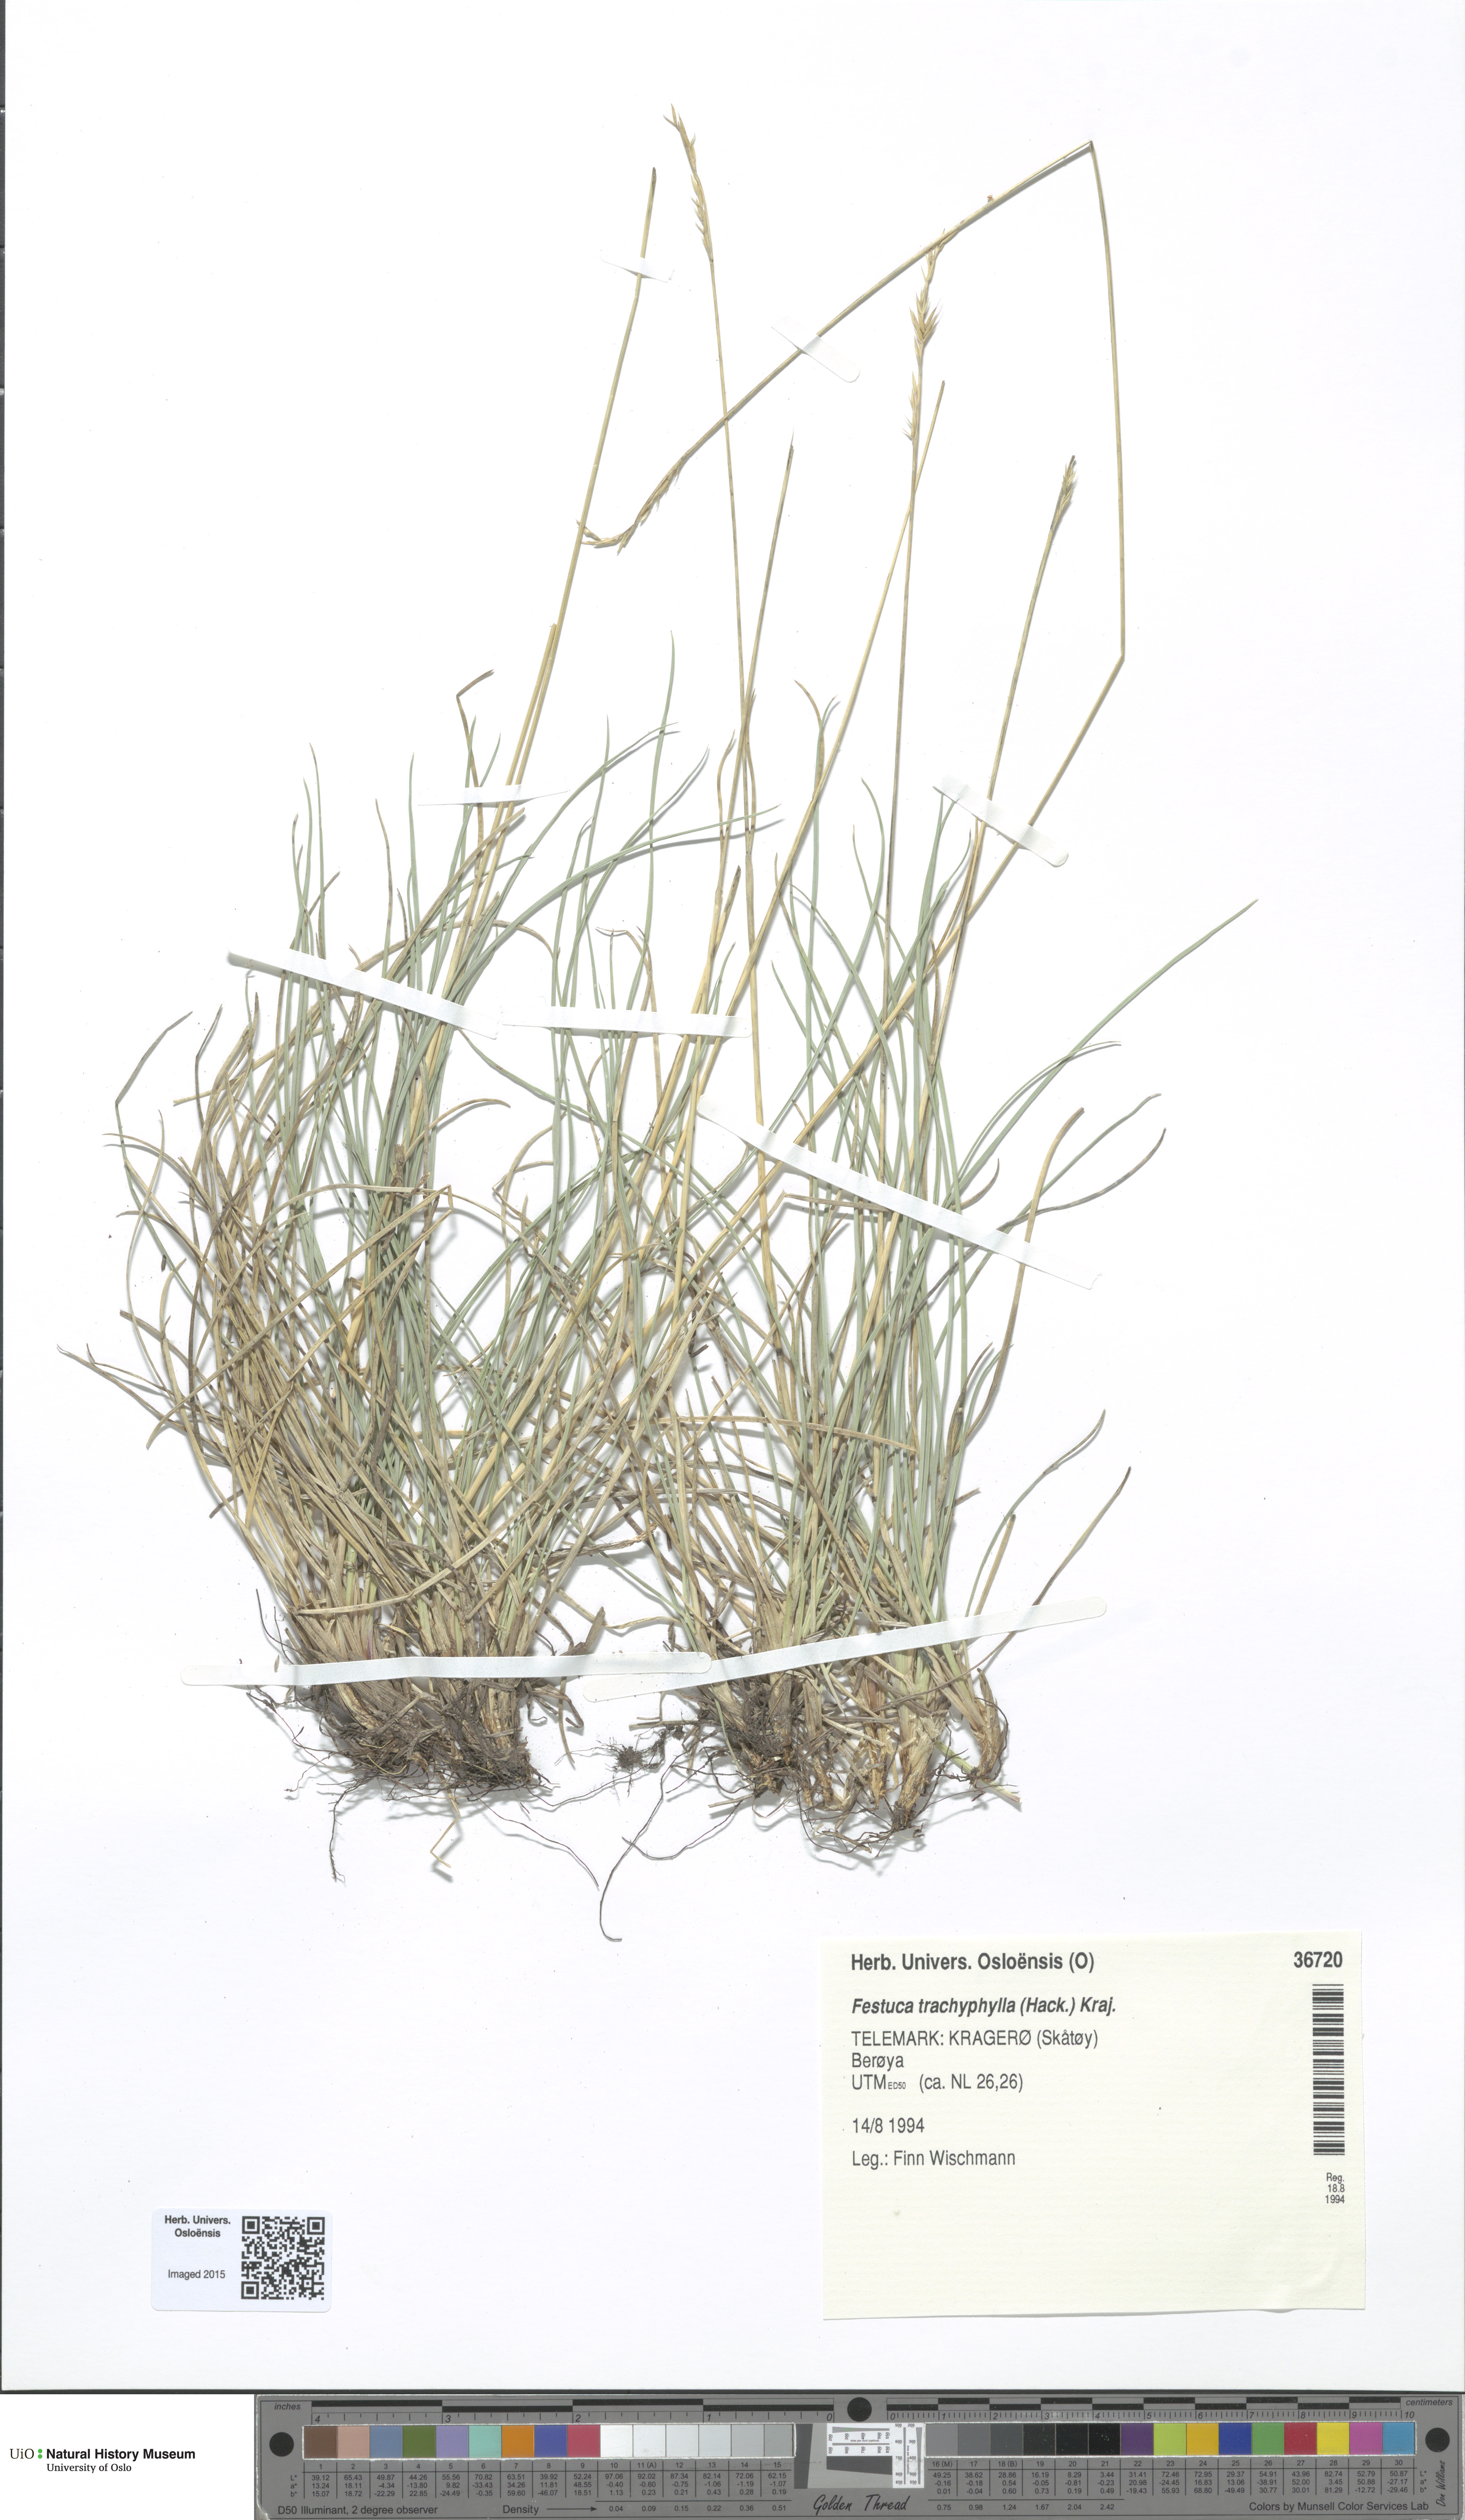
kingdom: Plantae
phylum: Tracheophyta
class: Liliopsida
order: Poales
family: Poaceae
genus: Festuca
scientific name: Festuca trachyphylla
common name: Hard fescue
